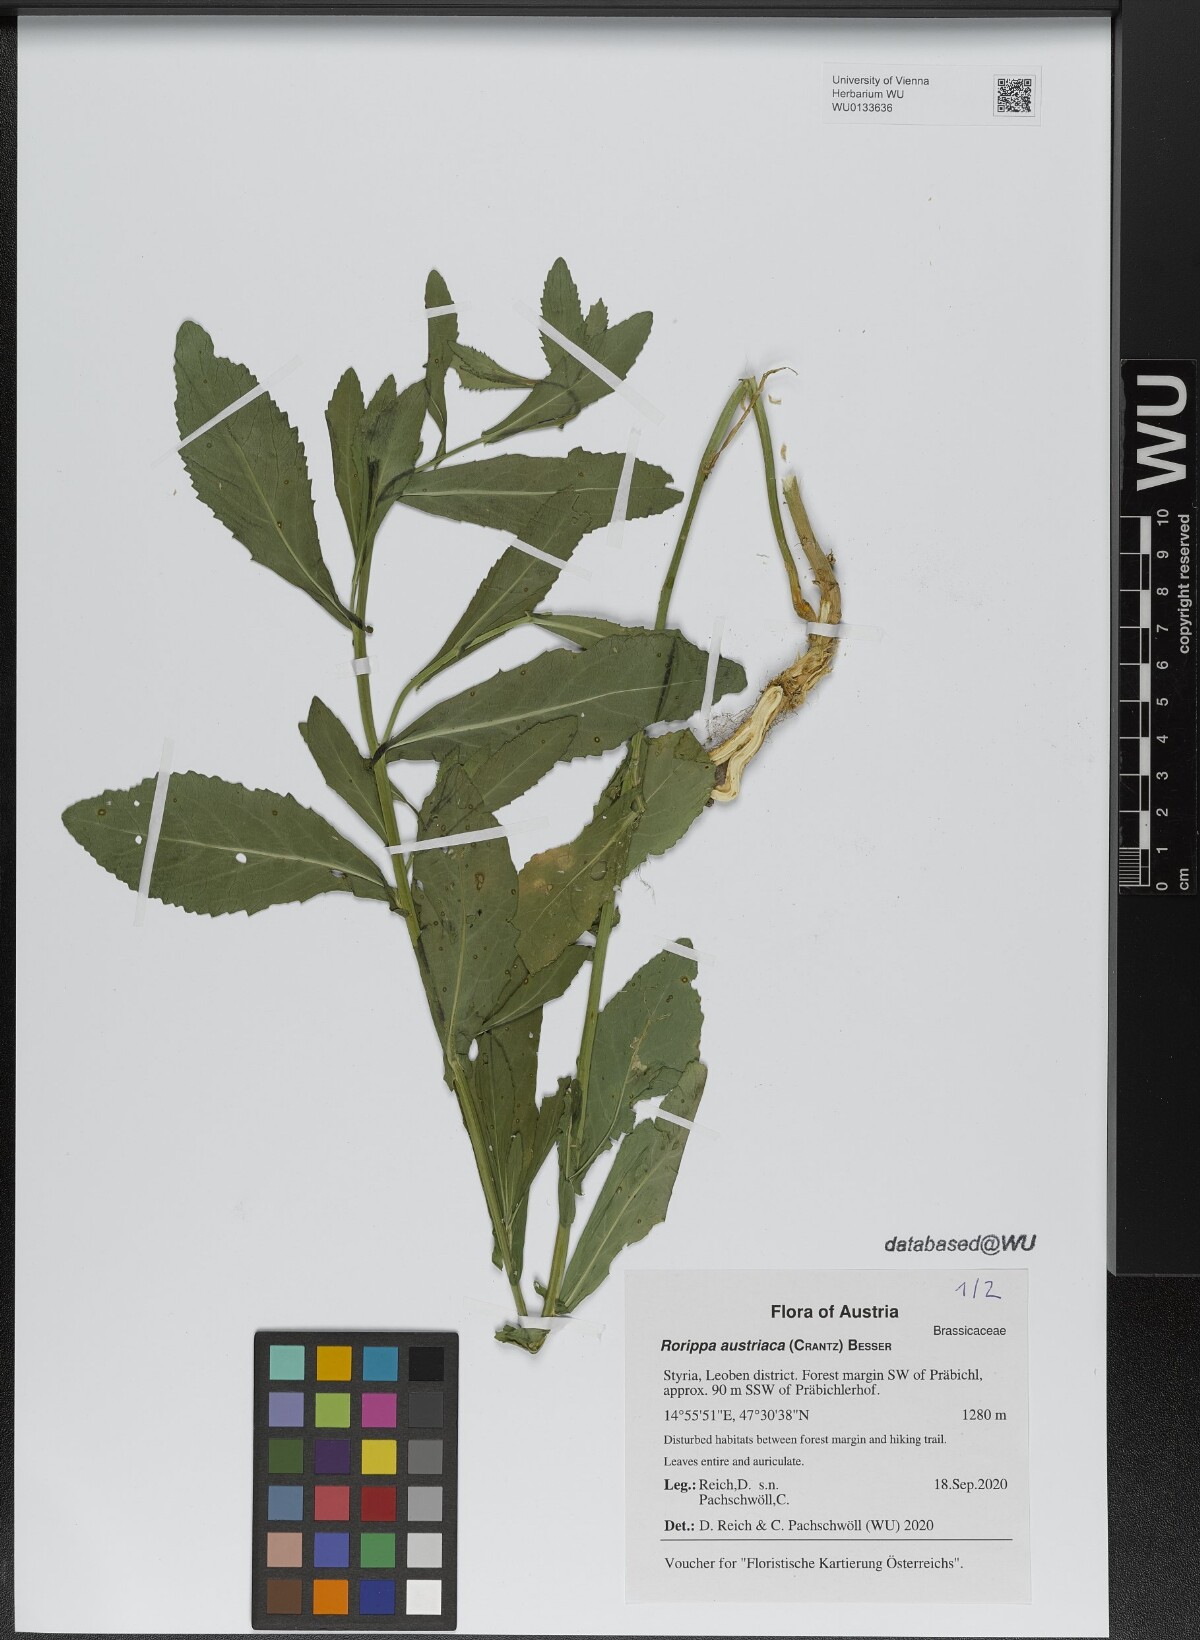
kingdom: Plantae
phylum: Tracheophyta
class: Magnoliopsida
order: Brassicales
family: Brassicaceae
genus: Rorippa
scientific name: Rorippa austriaca
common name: Austrian yellow-cress
